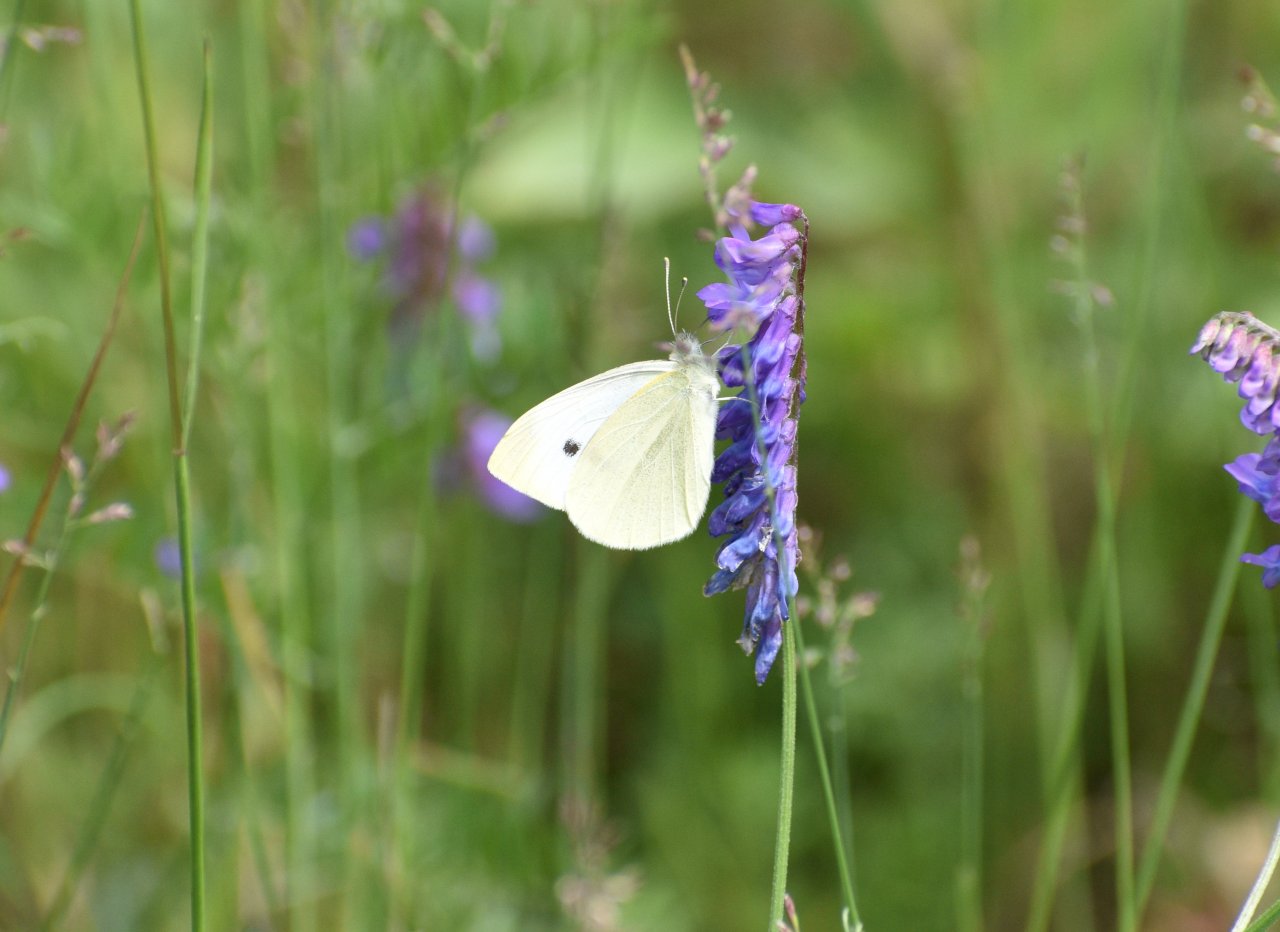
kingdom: Animalia
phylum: Arthropoda
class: Insecta
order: Lepidoptera
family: Pieridae
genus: Pieris
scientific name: Pieris rapae
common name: Cabbage White
